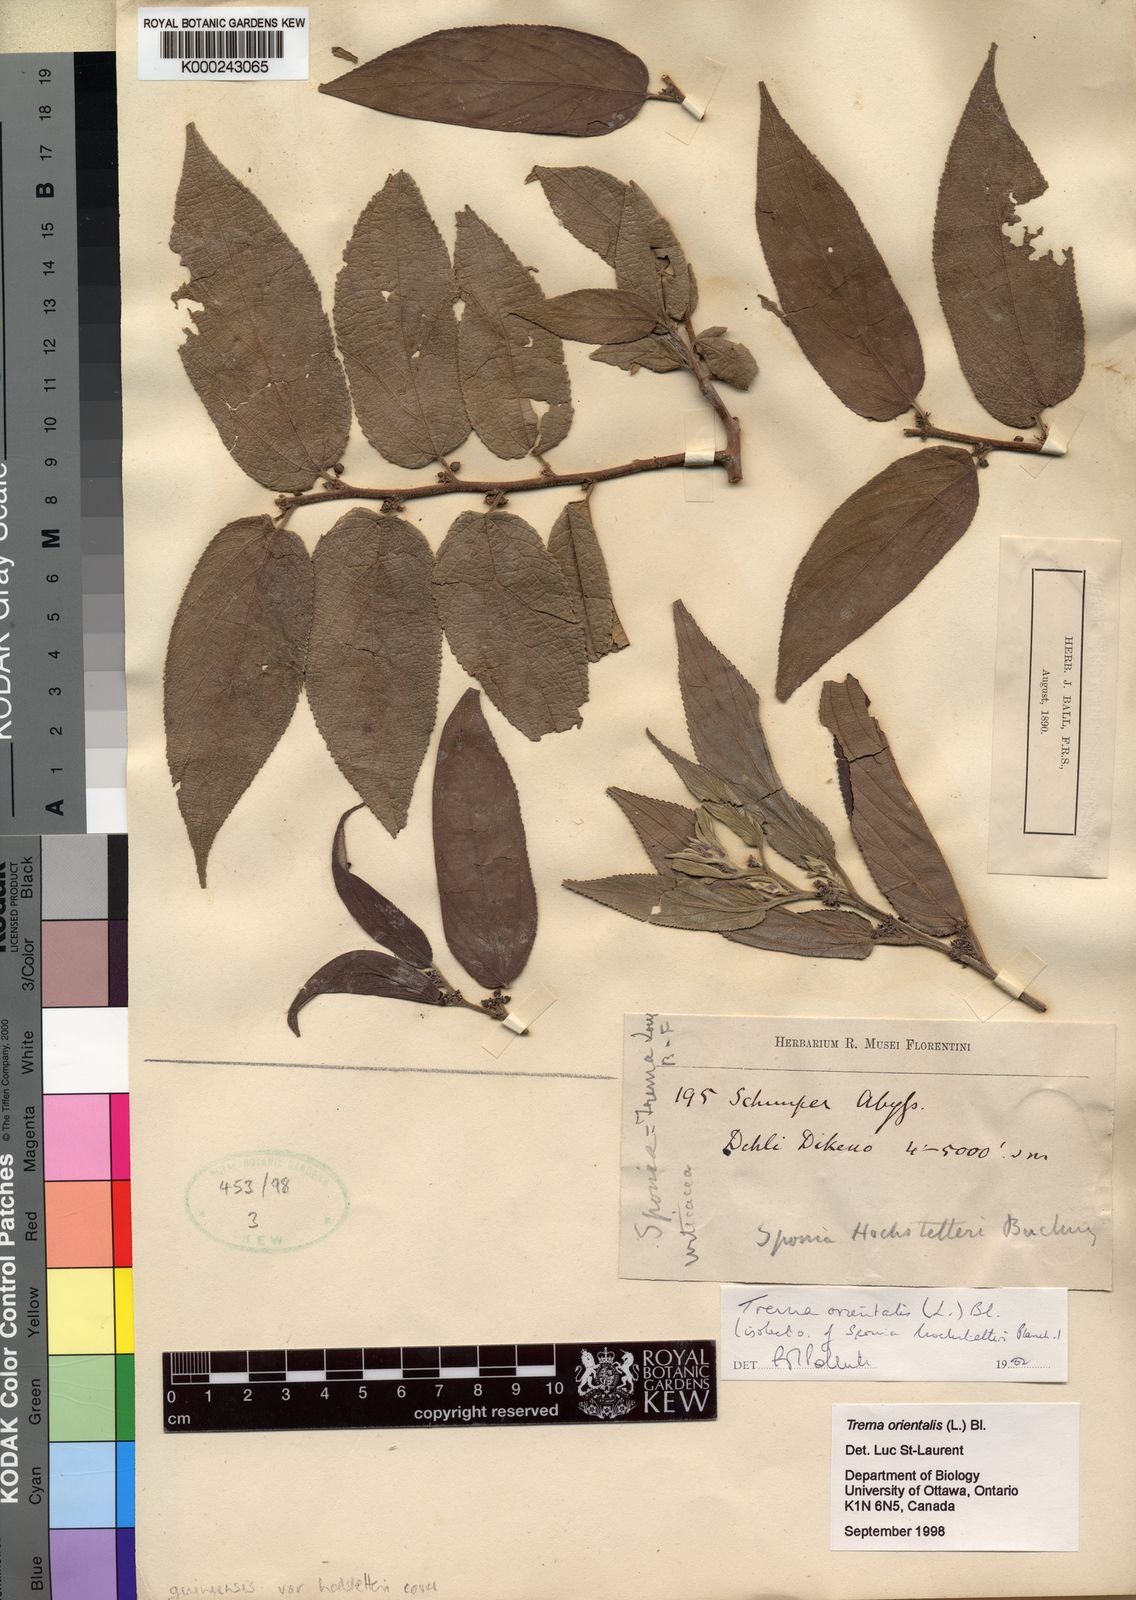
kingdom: Plantae
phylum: Tracheophyta
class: Magnoliopsida
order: Rosales
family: Cannabaceae
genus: Trema
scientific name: Trema
